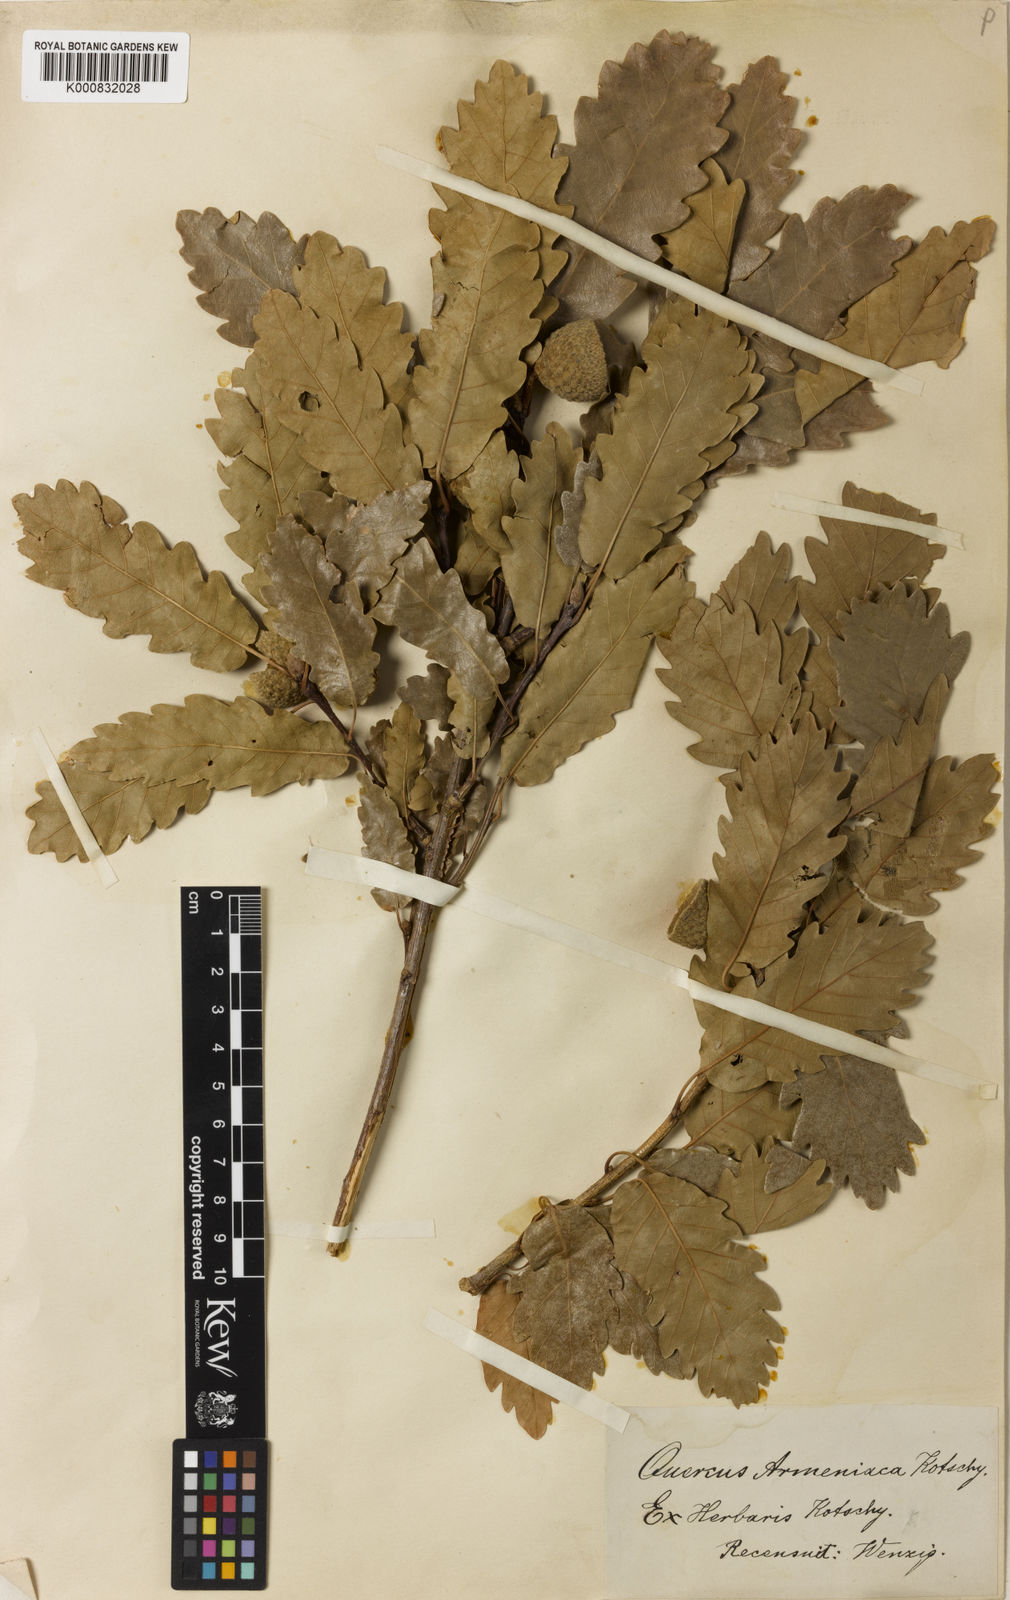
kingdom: Plantae
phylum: Tracheophyta
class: Magnoliopsida
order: Fagales
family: Fagaceae
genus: Quercus
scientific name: Quercus hartwissiana
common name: Strandzha oak
